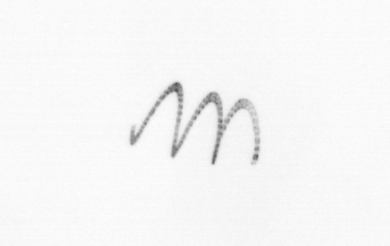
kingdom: Chromista
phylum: Ochrophyta
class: Bacillariophyceae
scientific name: Bacillariophyceae
